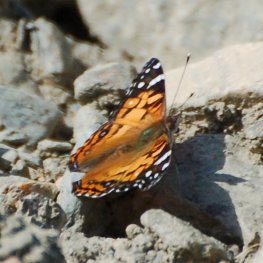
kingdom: Animalia
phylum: Arthropoda
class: Insecta
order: Lepidoptera
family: Nymphalidae
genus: Vanessa
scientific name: Vanessa virginiensis
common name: American Lady
